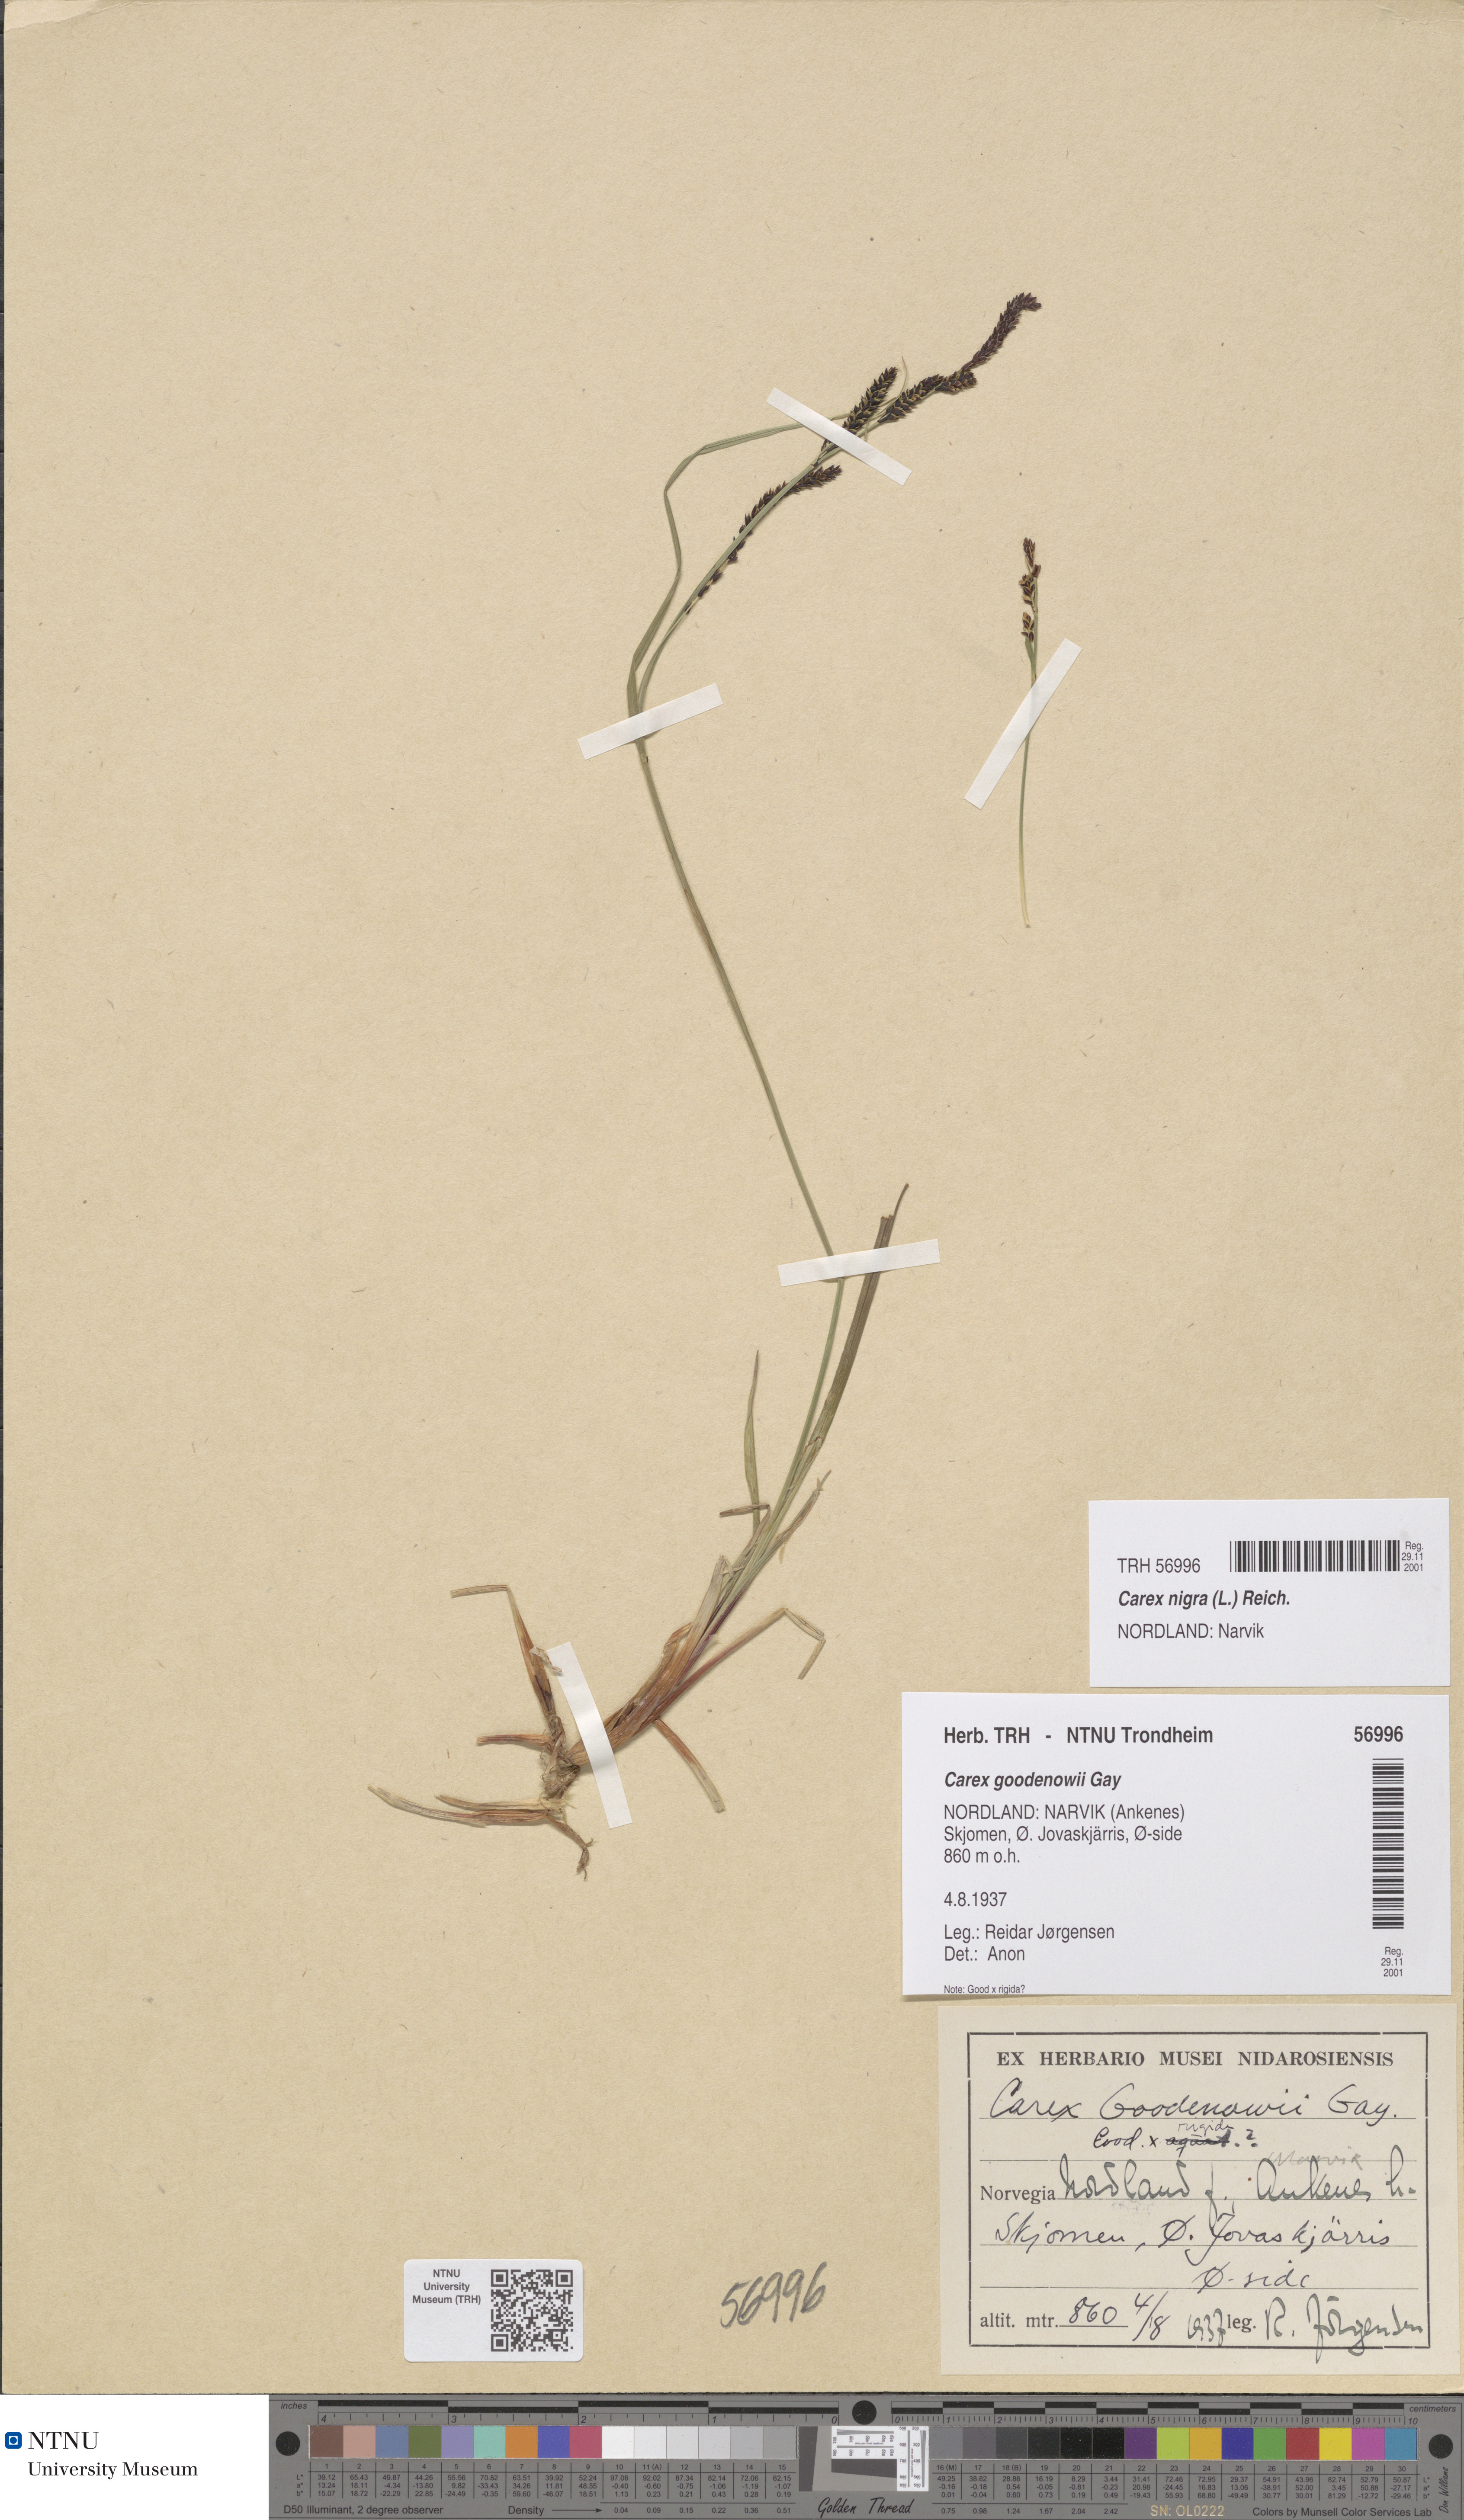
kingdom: Plantae
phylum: Tracheophyta
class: Liliopsida
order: Poales
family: Cyperaceae
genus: Carex
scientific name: Carex nigra
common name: Common sedge
